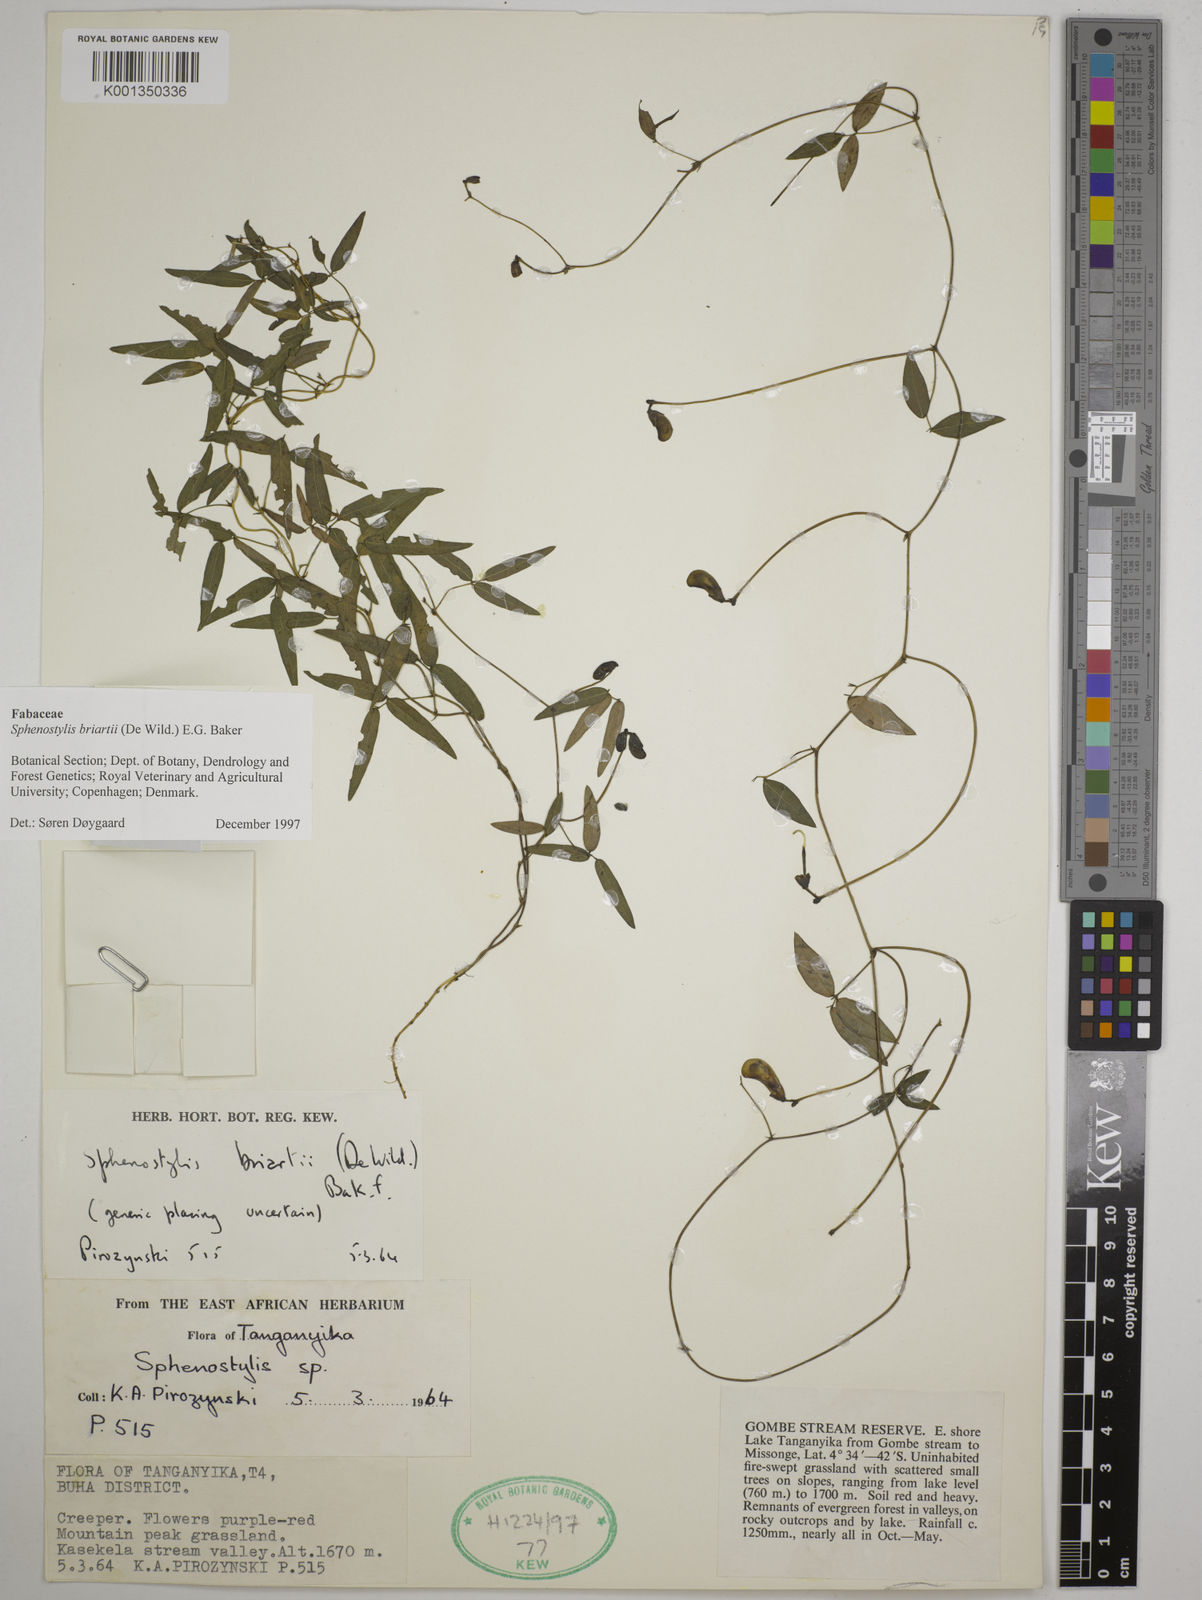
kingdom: Plantae
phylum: Tracheophyta
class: Magnoliopsida
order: Fabales
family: Fabaceae
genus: Sphenostylis
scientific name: Sphenostylis briartii
